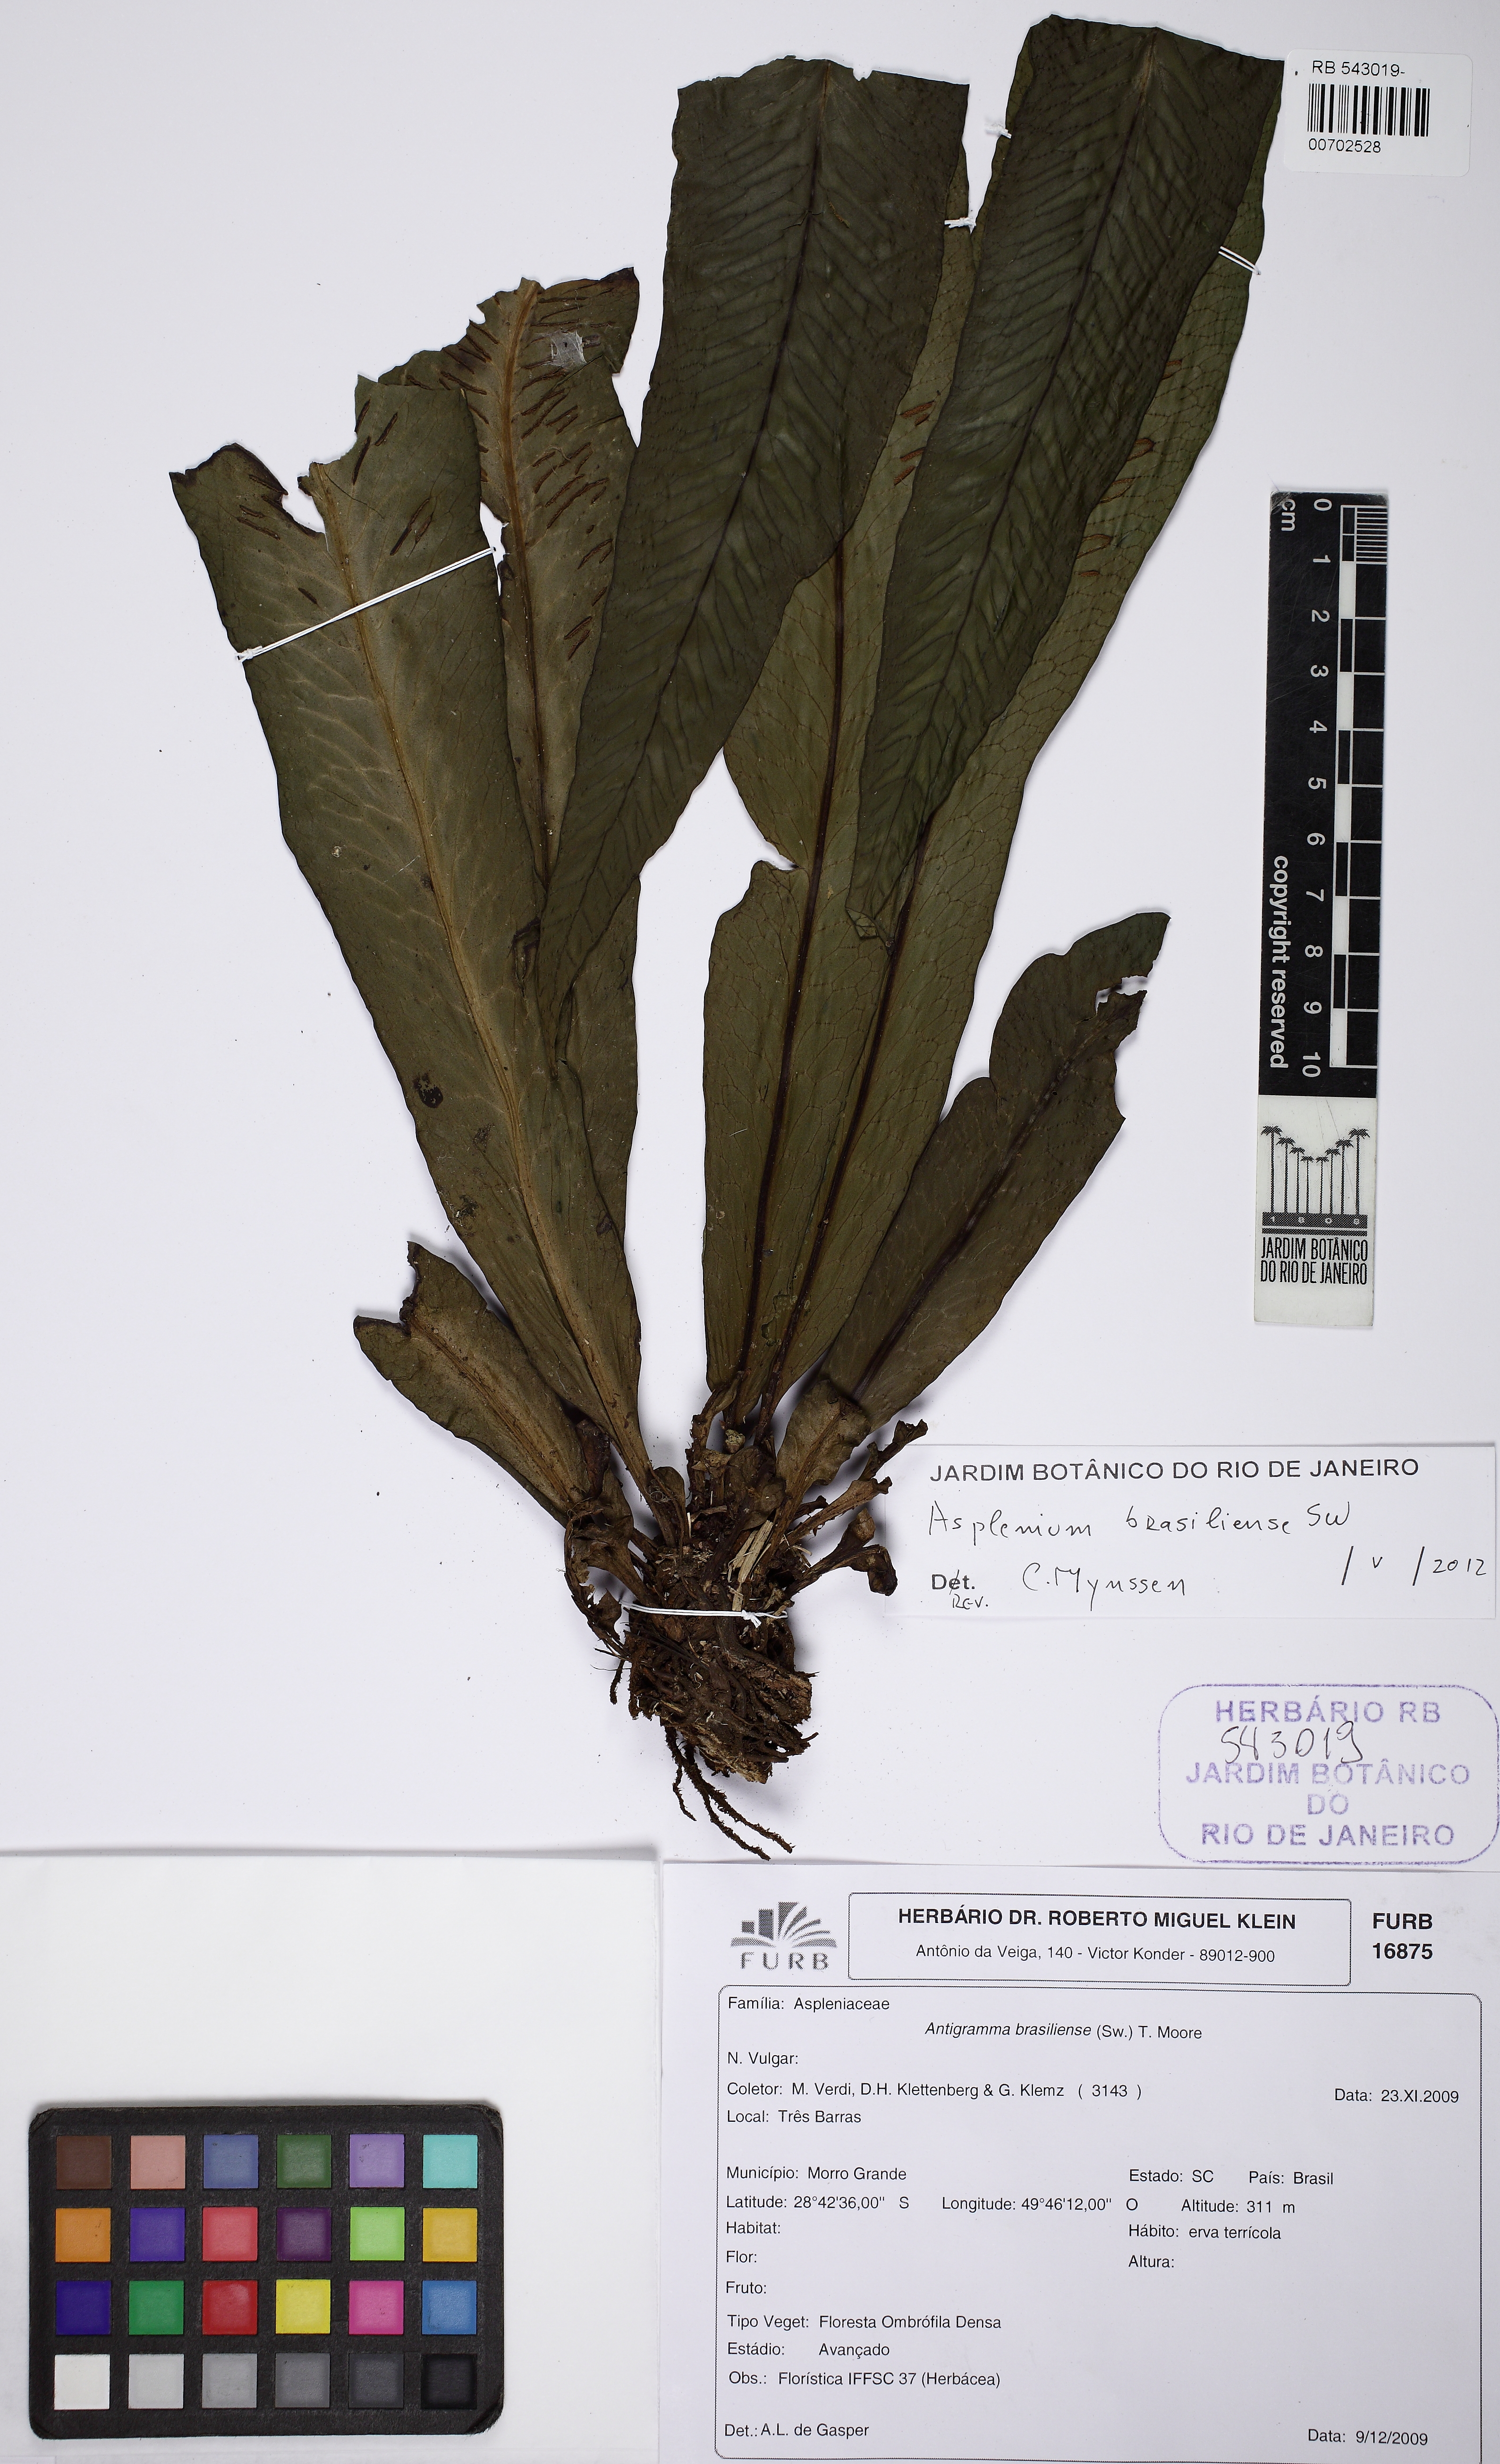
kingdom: Plantae
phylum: Tracheophyta
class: Polypodiopsida
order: Polypodiales
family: Aspleniaceae
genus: Asplenium
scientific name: Asplenium brasiliense
